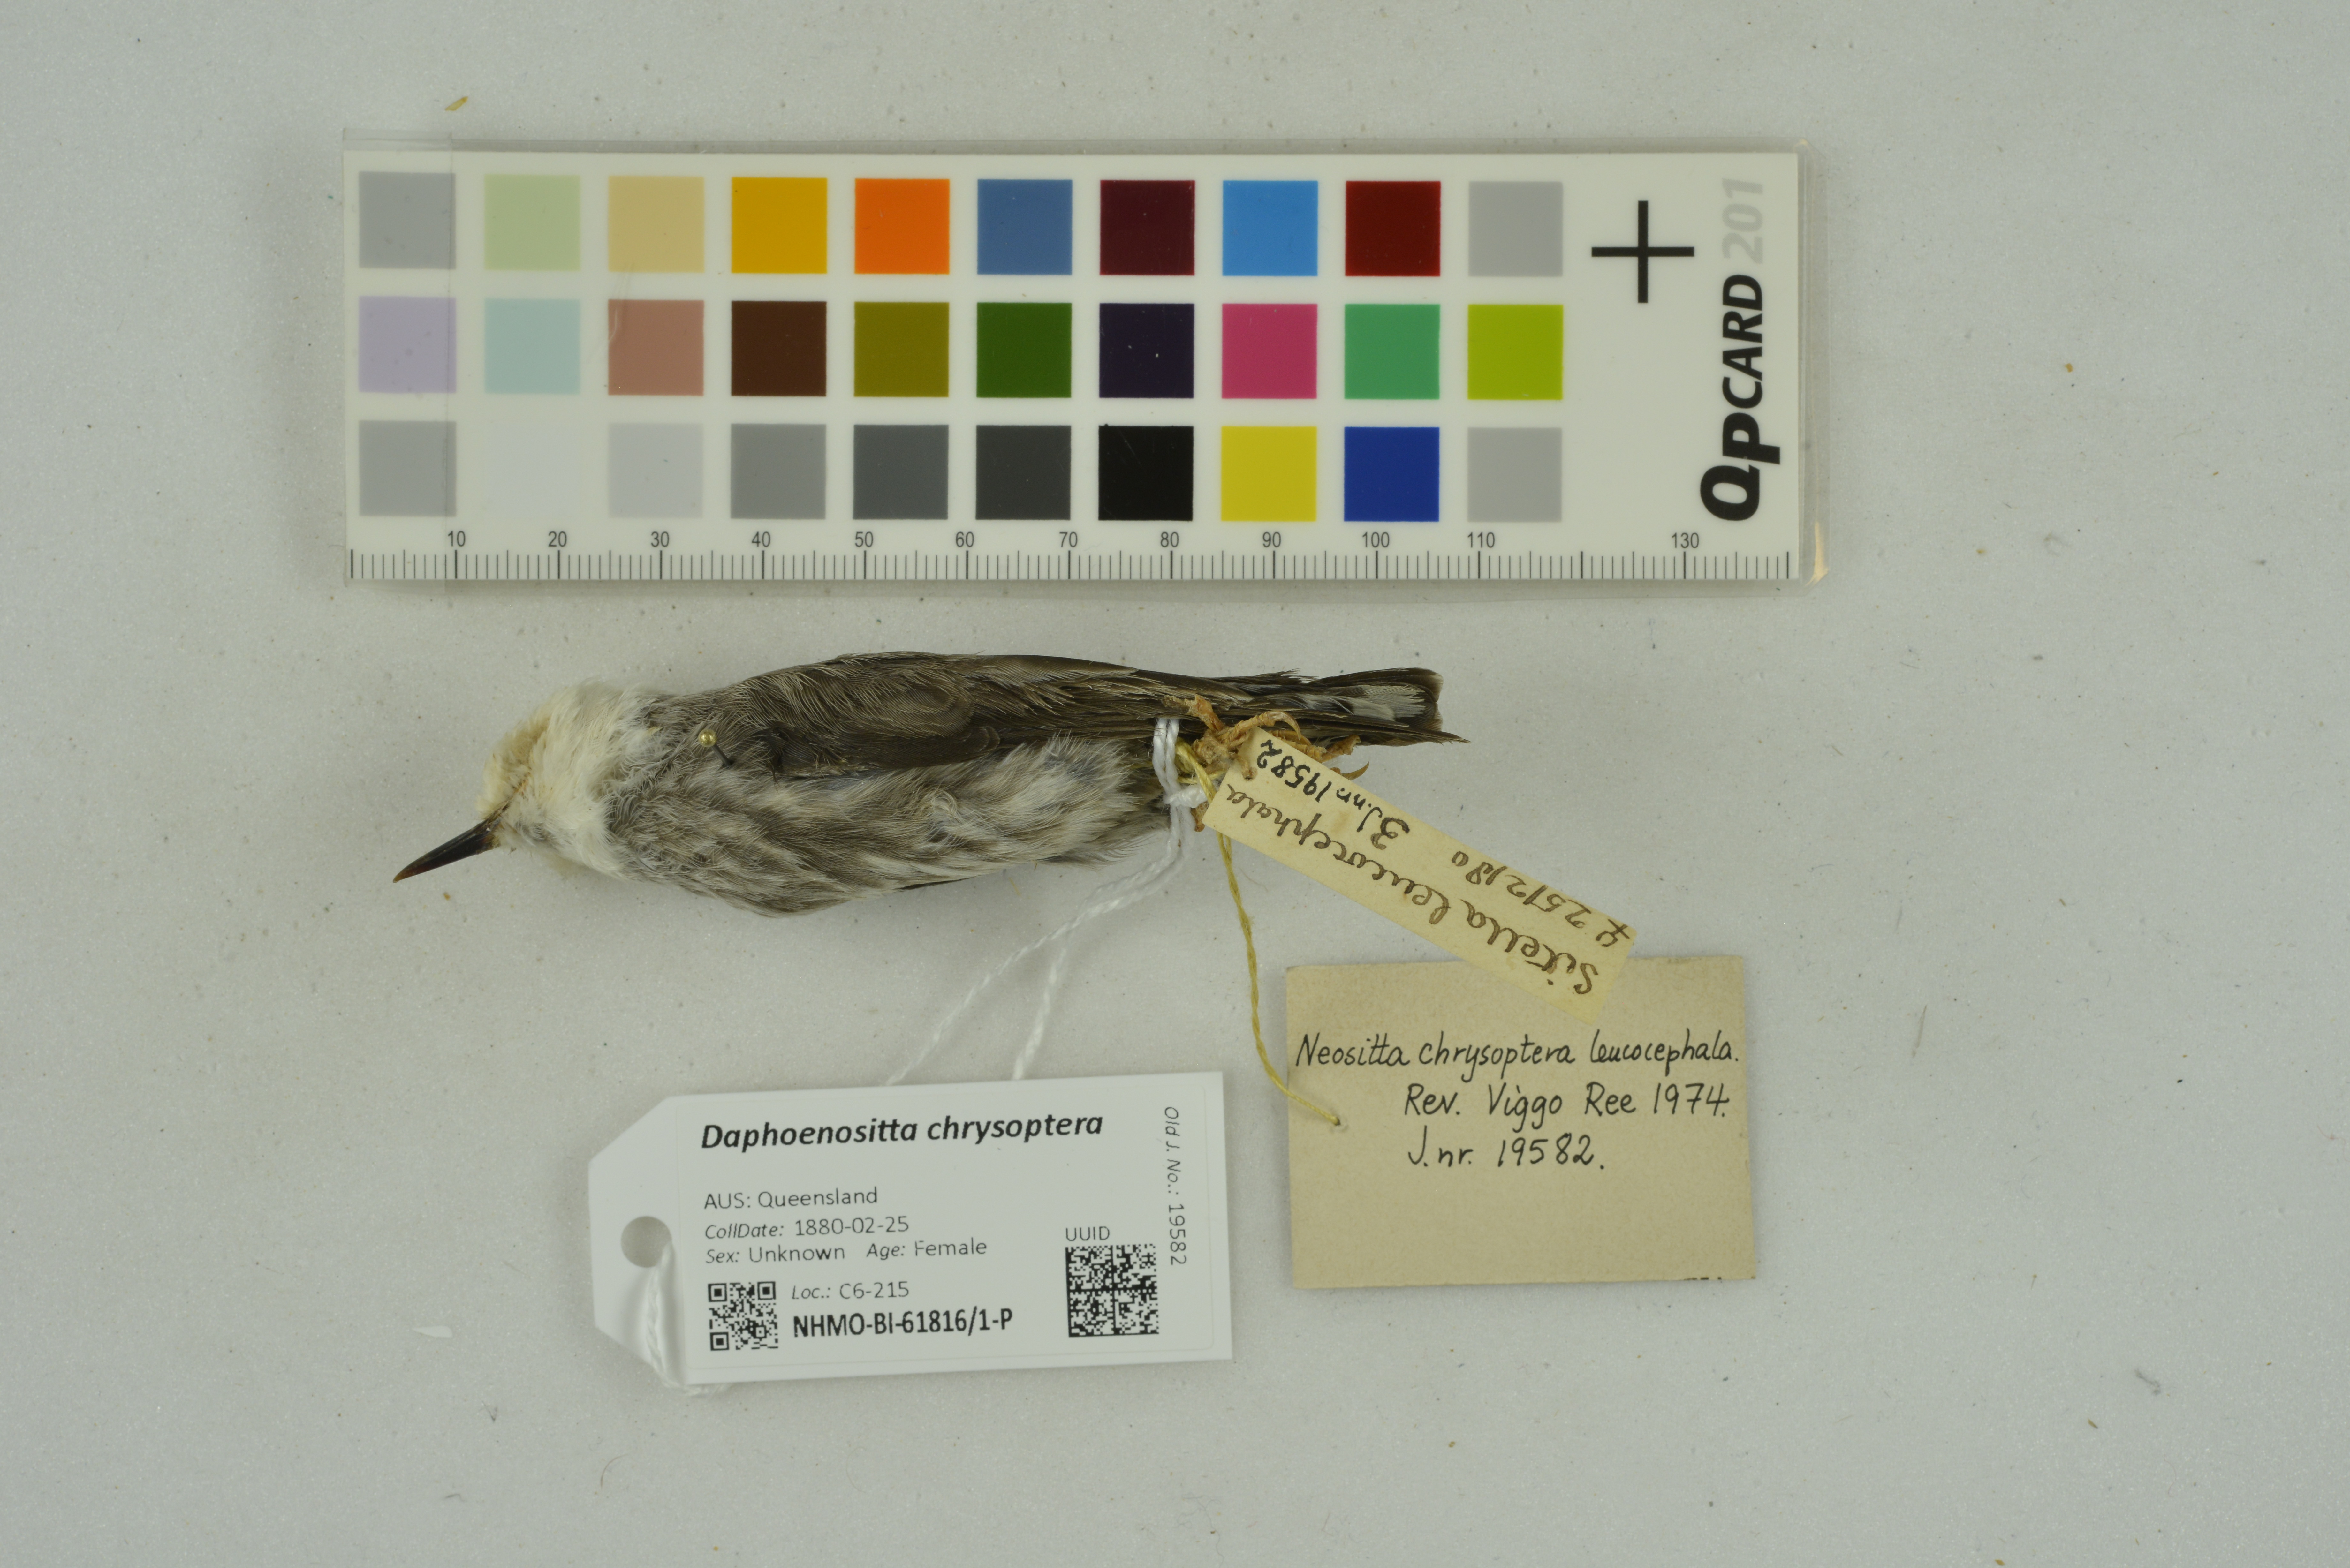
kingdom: Animalia
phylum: Chordata
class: Aves
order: Passeriformes
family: Neosittidae
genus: Daphoenositta
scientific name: Daphoenositta chrysoptera
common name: Varied sittella
